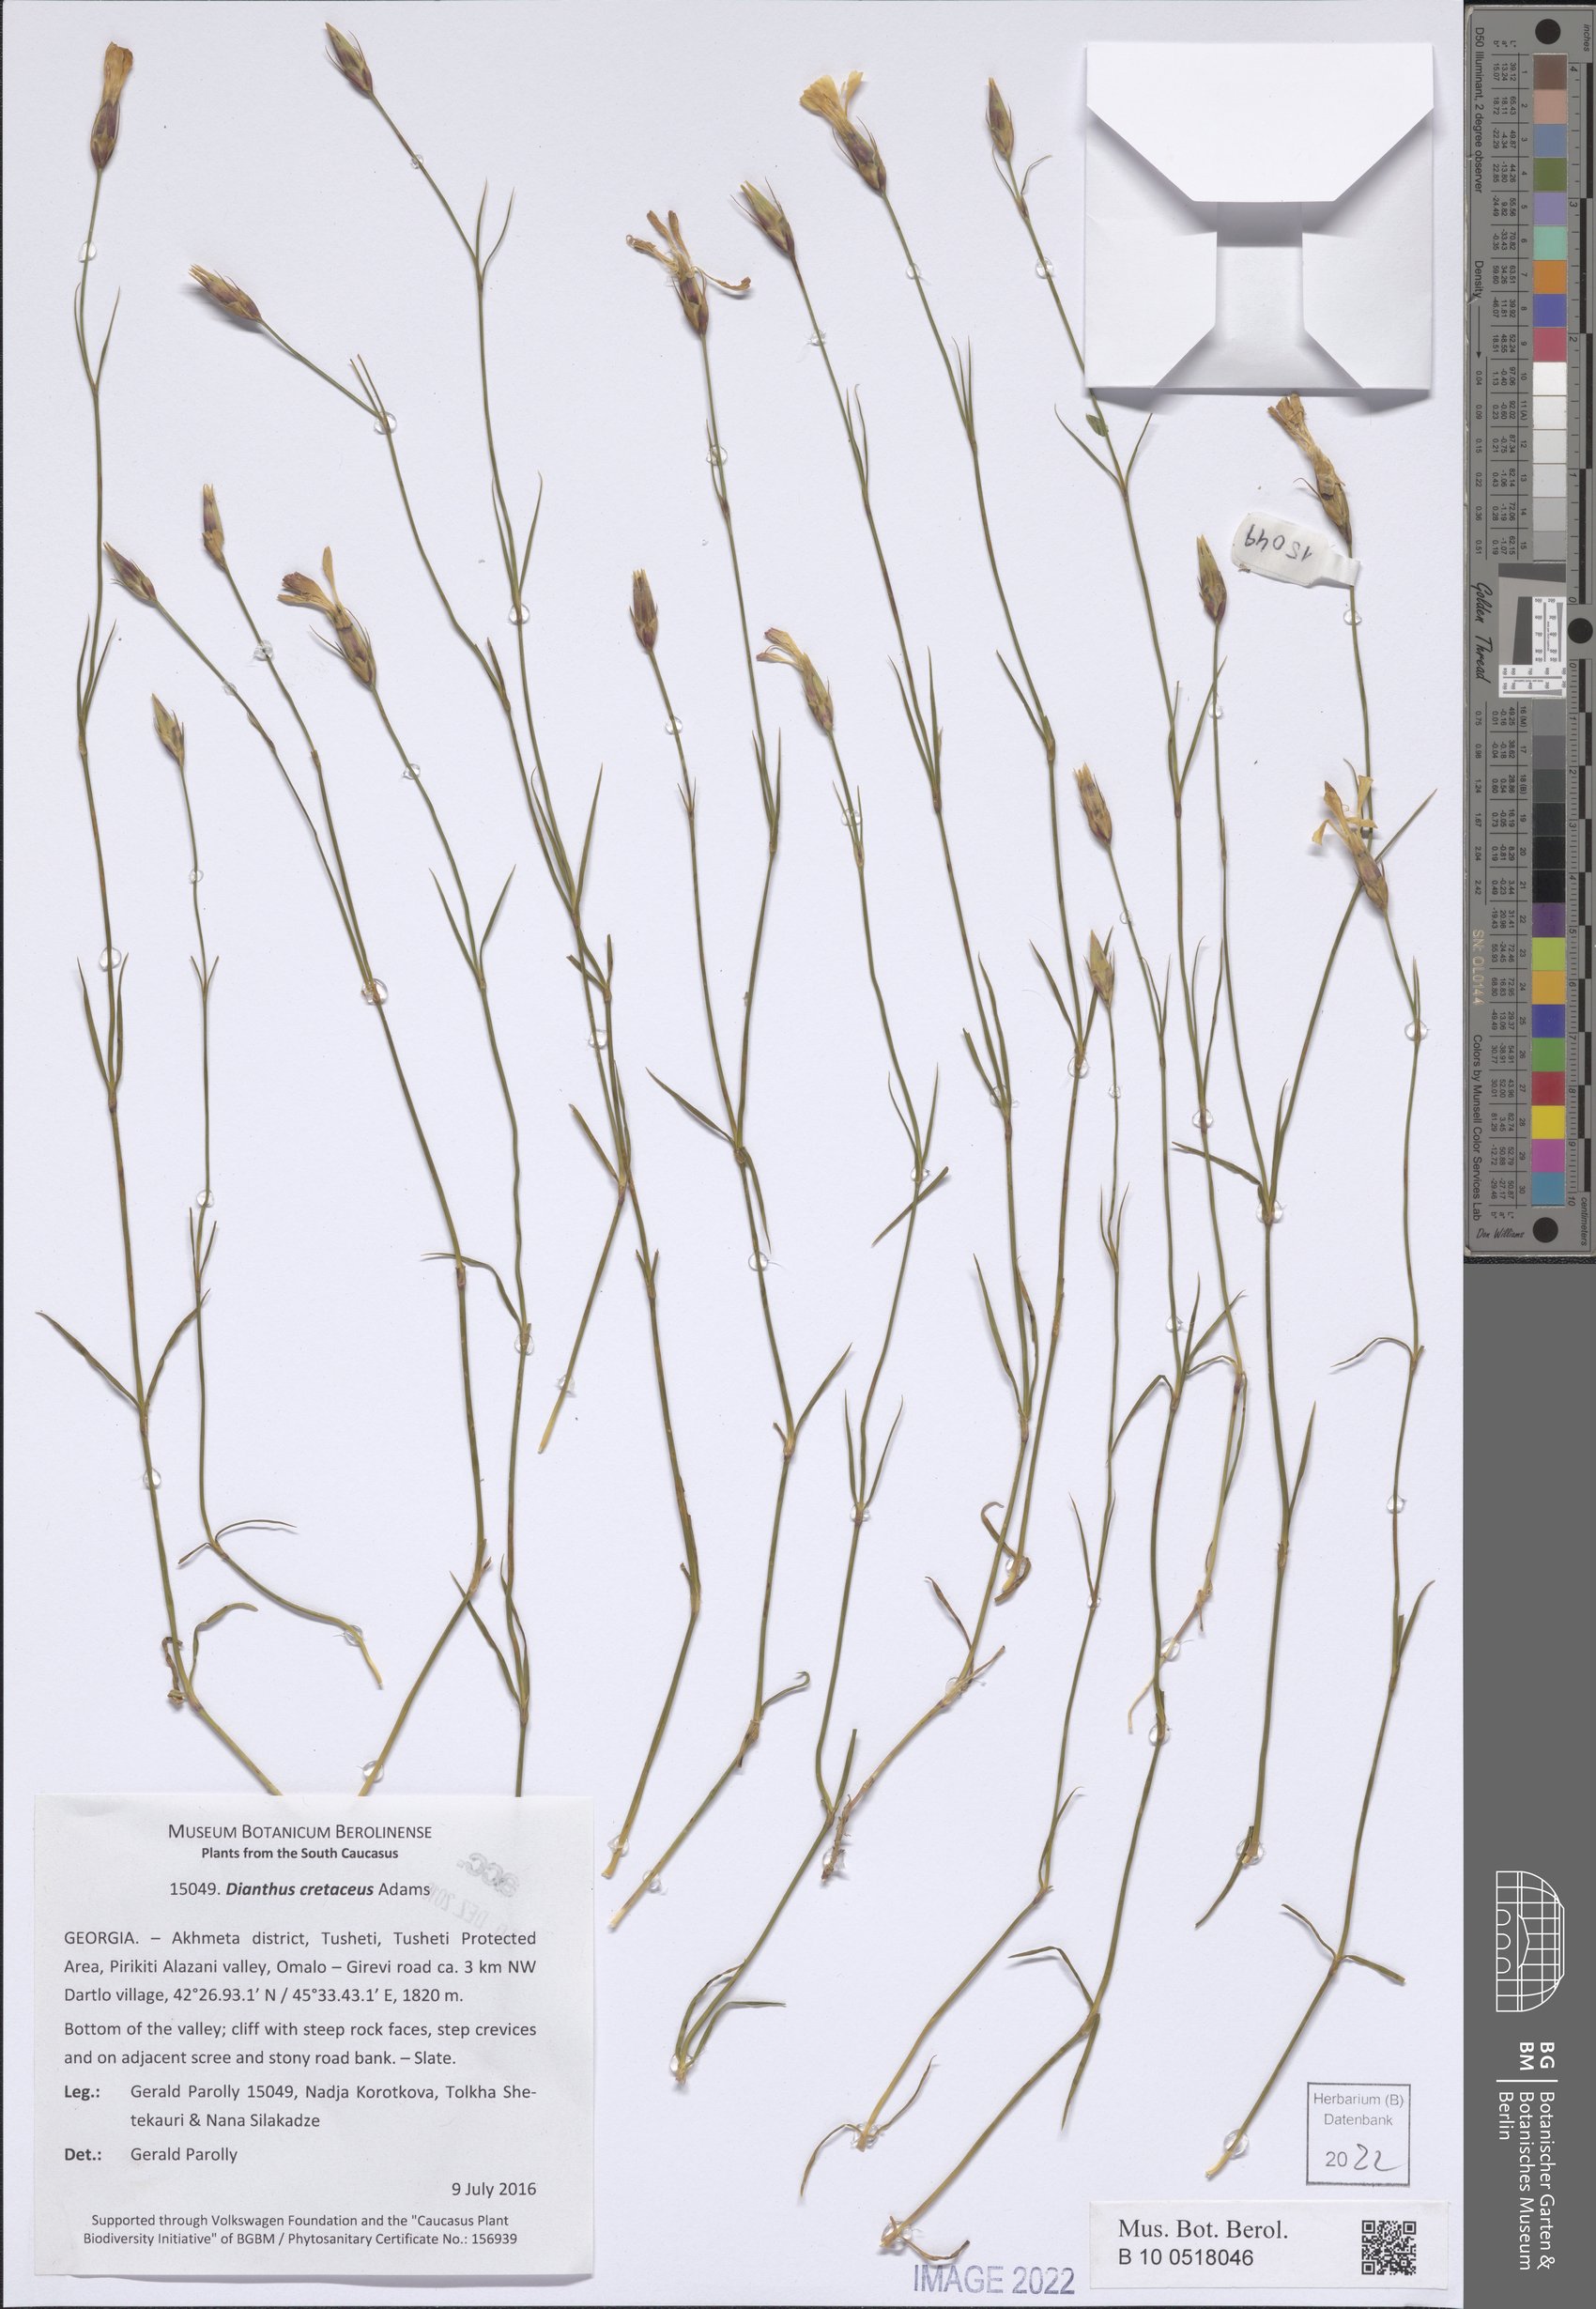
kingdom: Plantae
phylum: Tracheophyta
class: Magnoliopsida
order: Caryophyllales
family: Caryophyllaceae
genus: Dianthus
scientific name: Dianthus cretaceus
